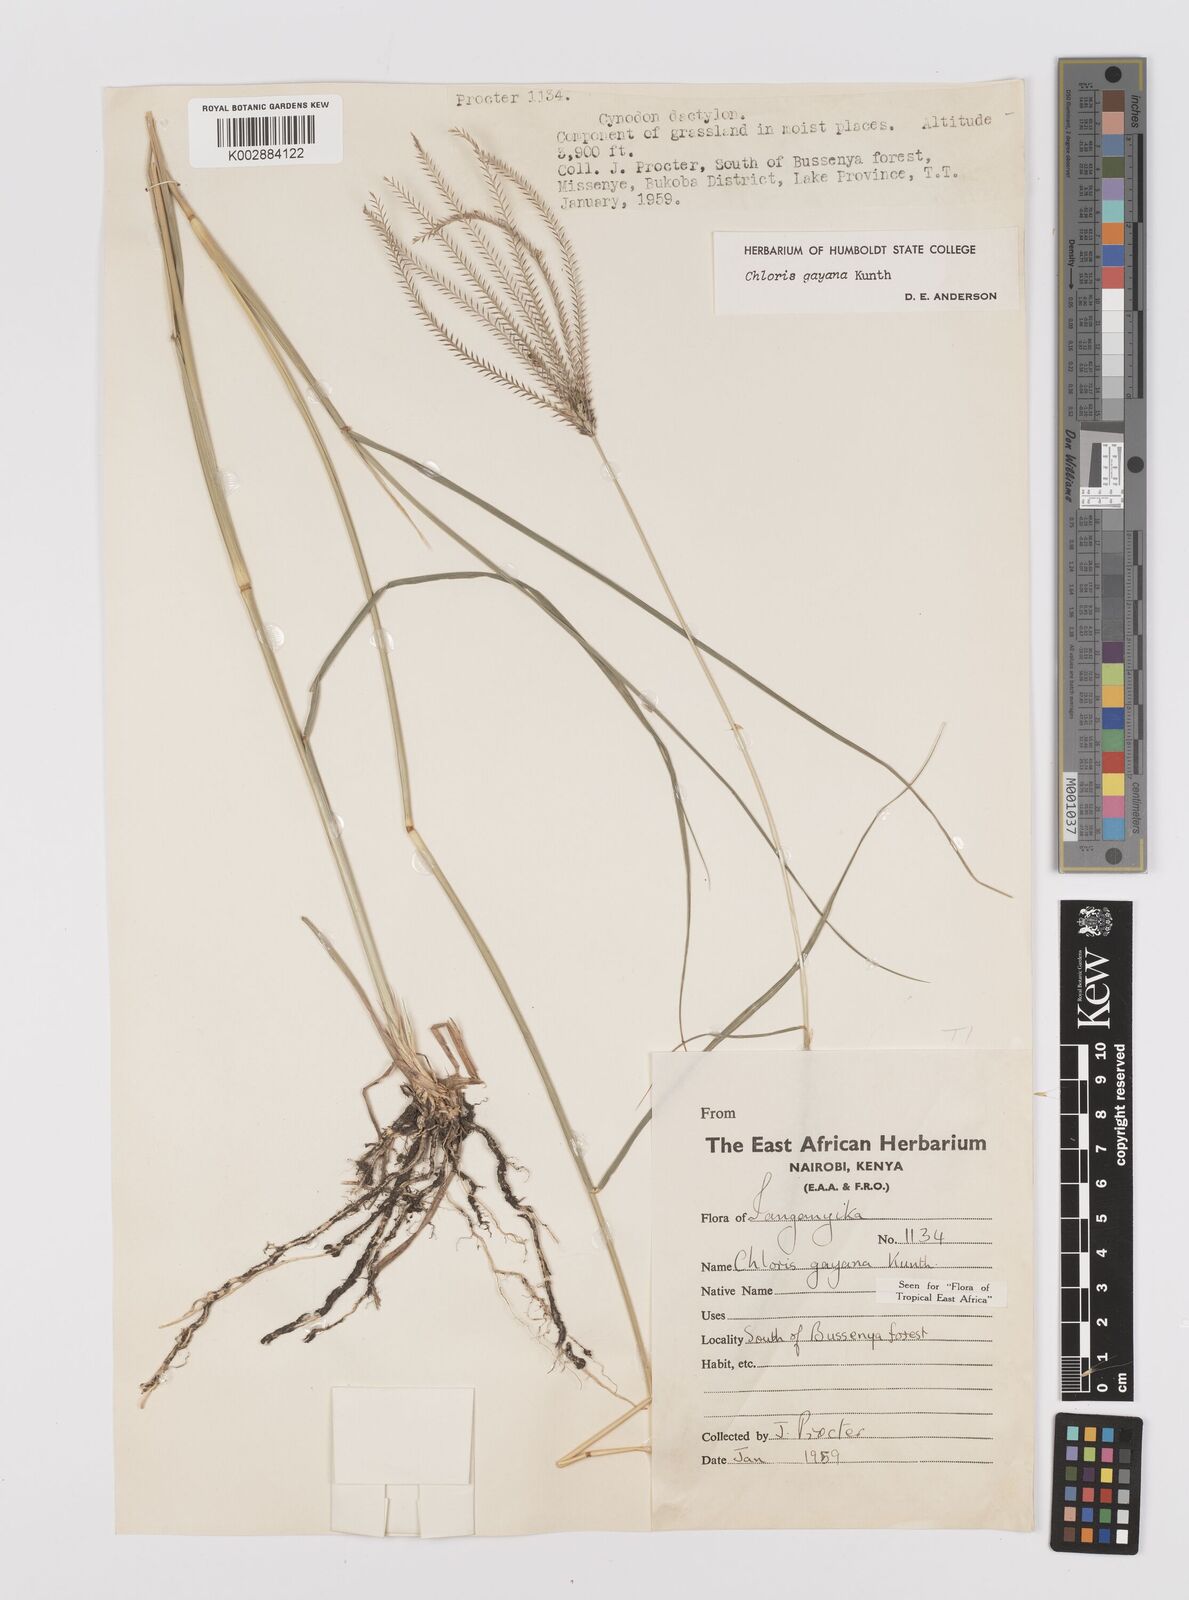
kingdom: Plantae
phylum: Tracheophyta
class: Liliopsida
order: Poales
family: Poaceae
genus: Chloris
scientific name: Chloris gayana
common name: Rhodes grass
